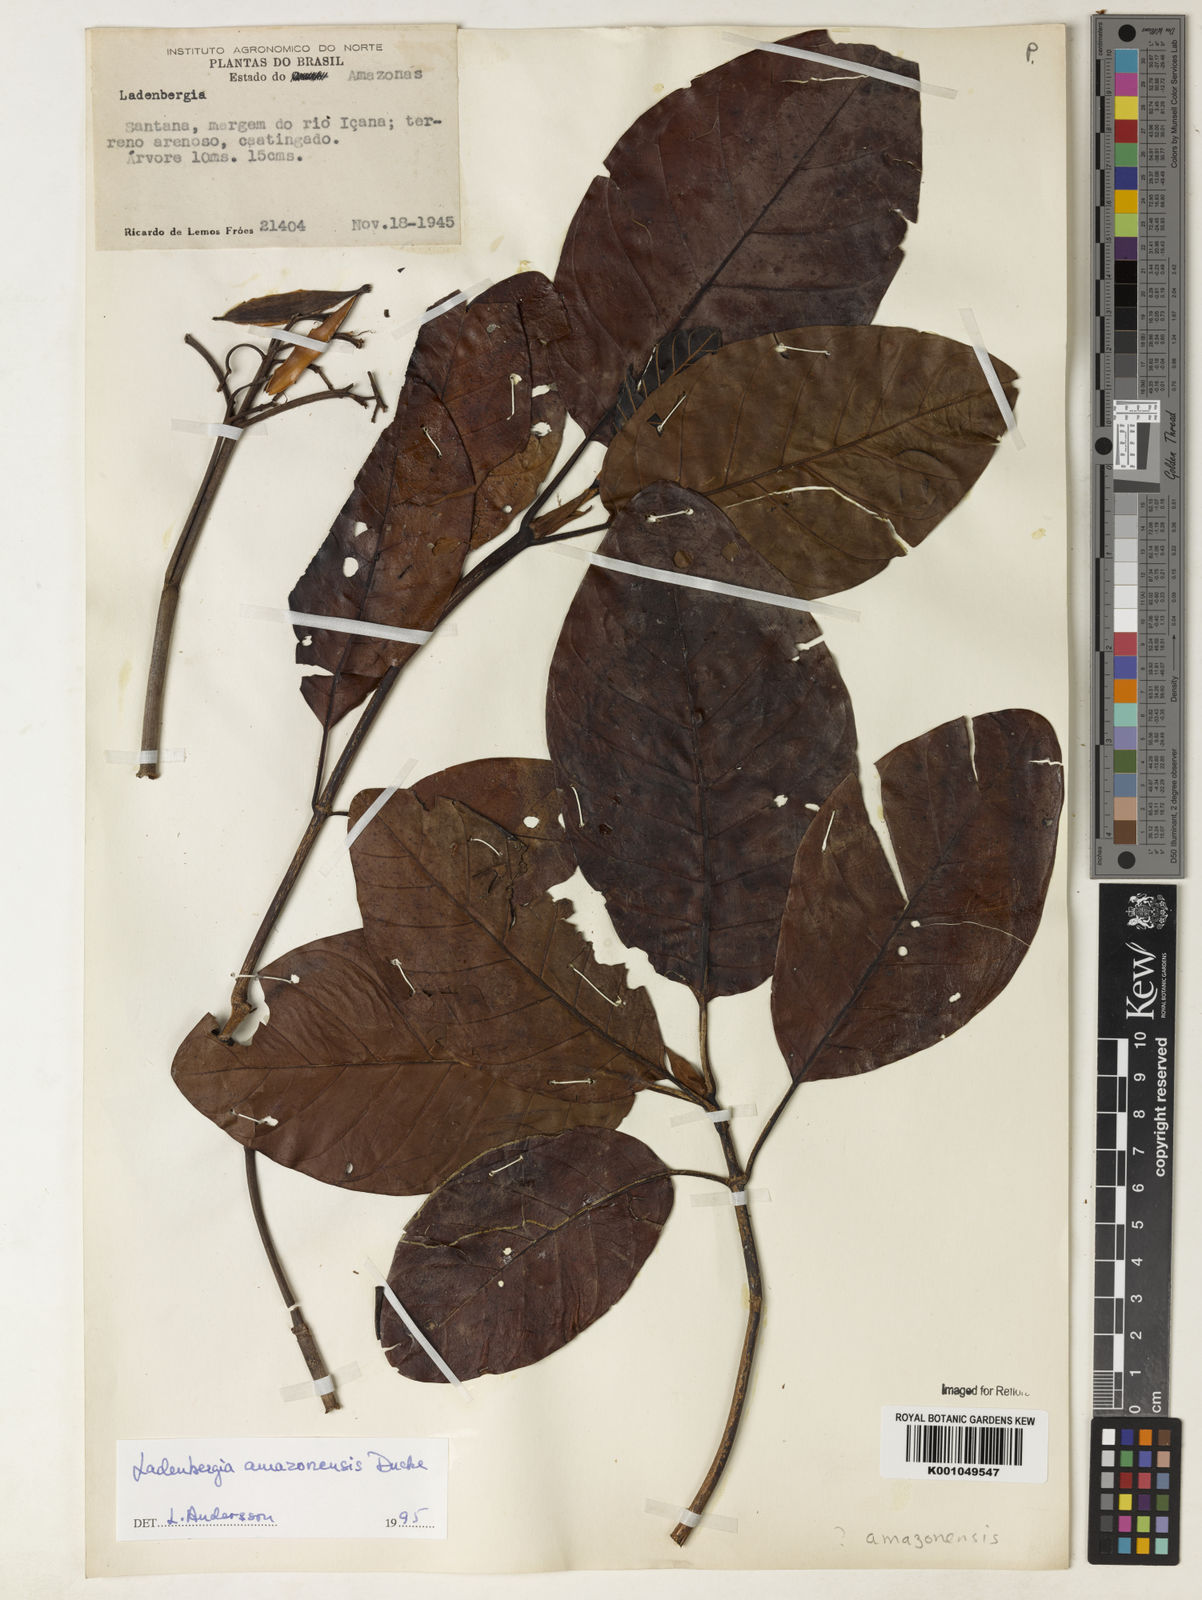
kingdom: Plantae
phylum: Tracheophyta
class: Magnoliopsida
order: Gentianales
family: Rubiaceae
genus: Ladenbergia
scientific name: Ladenbergia amazonensis
